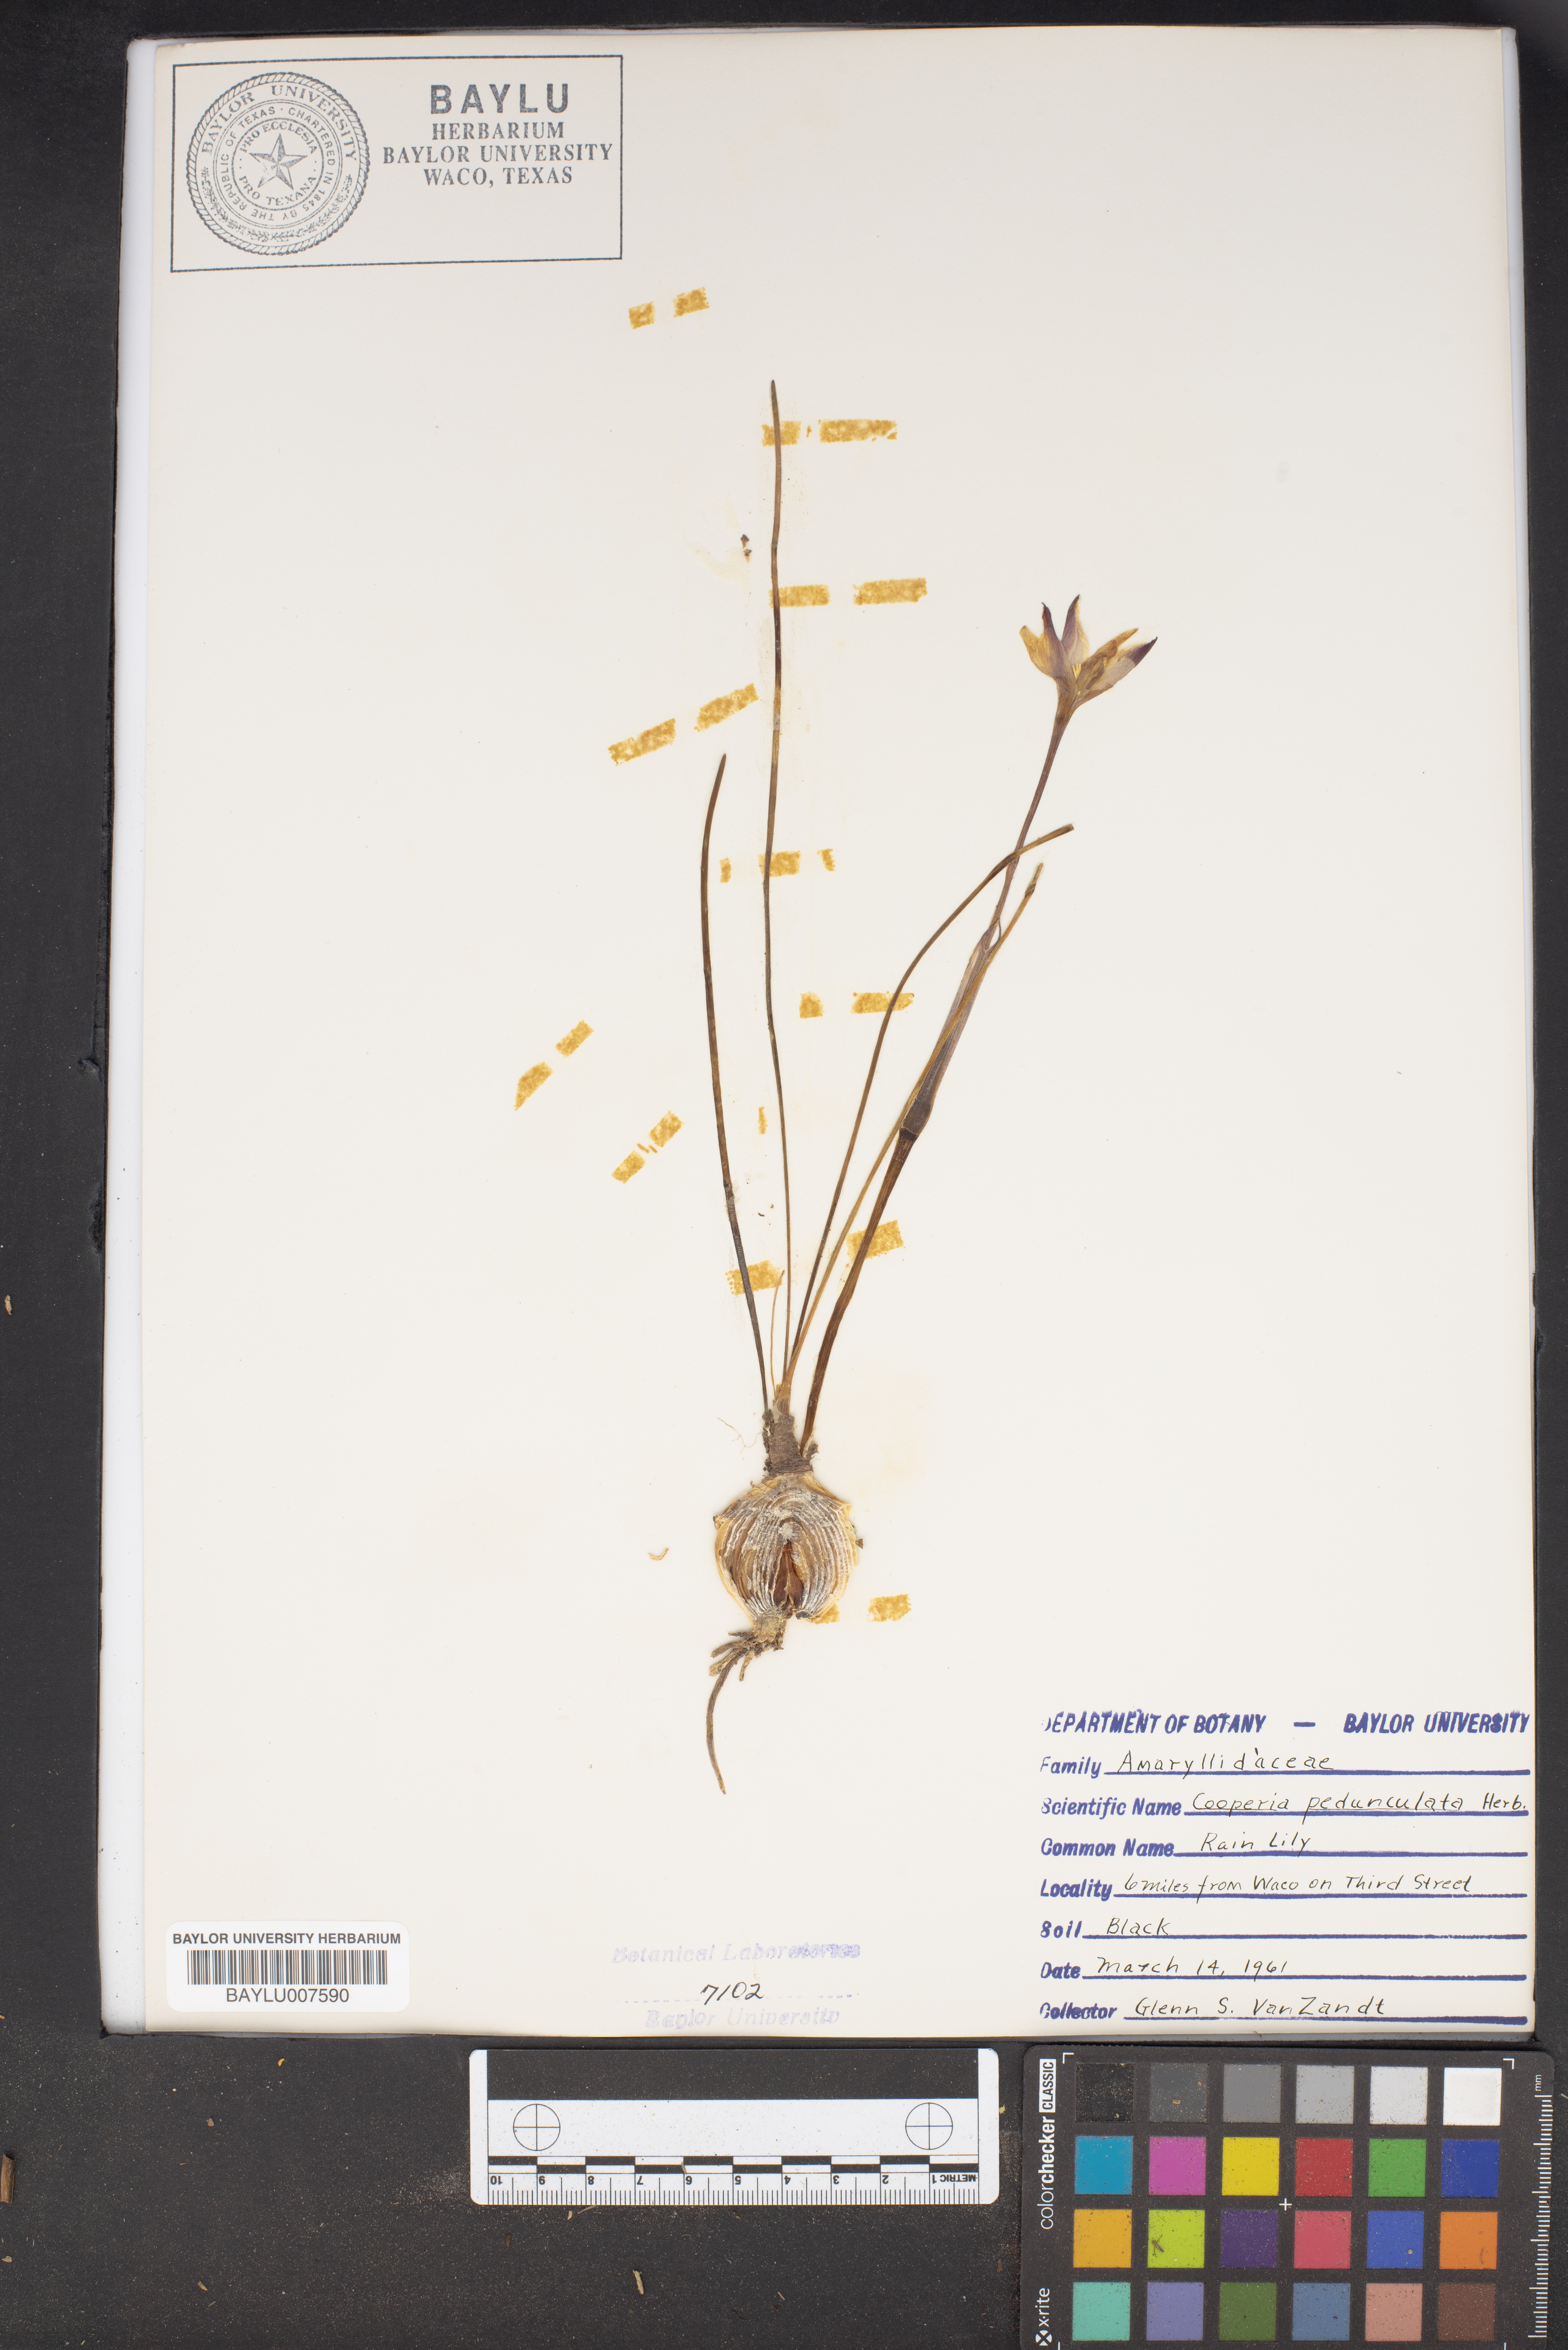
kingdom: Plantae
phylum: Tracheophyta
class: Liliopsida
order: Asparagales
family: Amaryllidaceae
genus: Zephyranthes
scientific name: Zephyranthes drummondii
